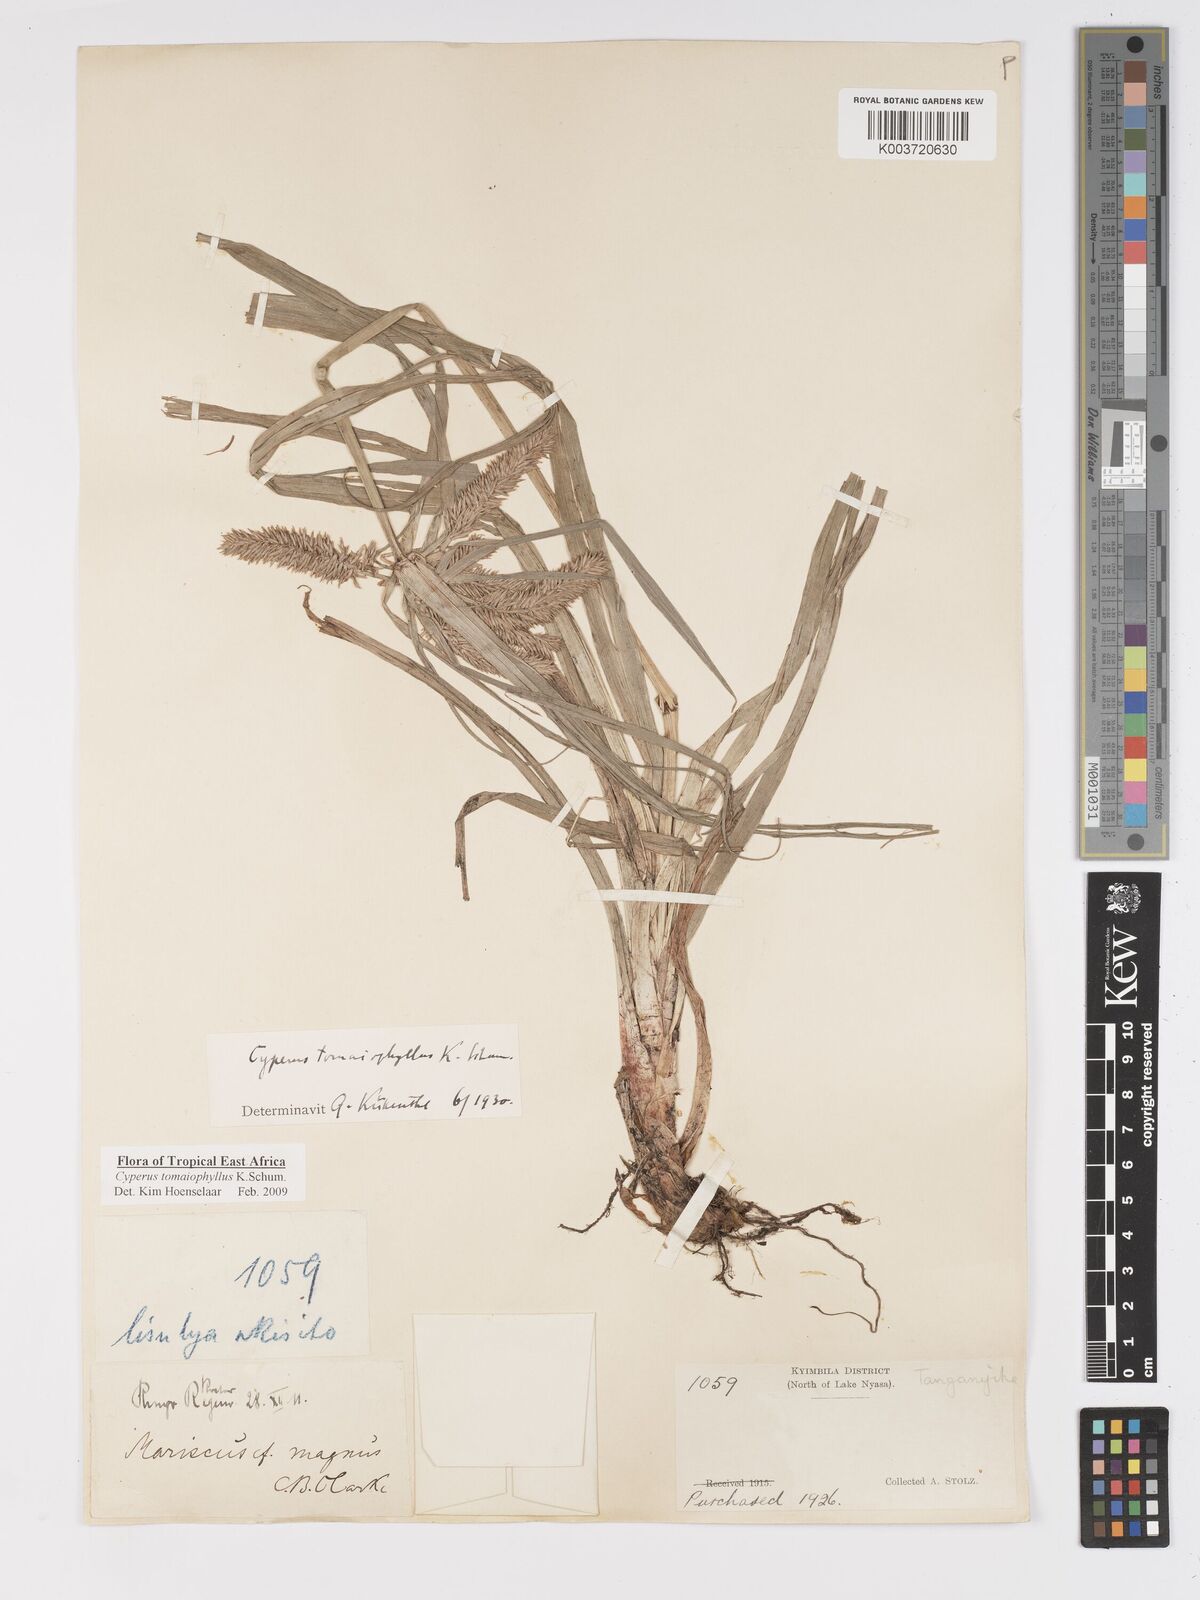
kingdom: Plantae
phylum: Tracheophyta
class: Liliopsida
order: Poales
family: Cyperaceae
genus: Cyperus
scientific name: Cyperus tomaiophyllus
